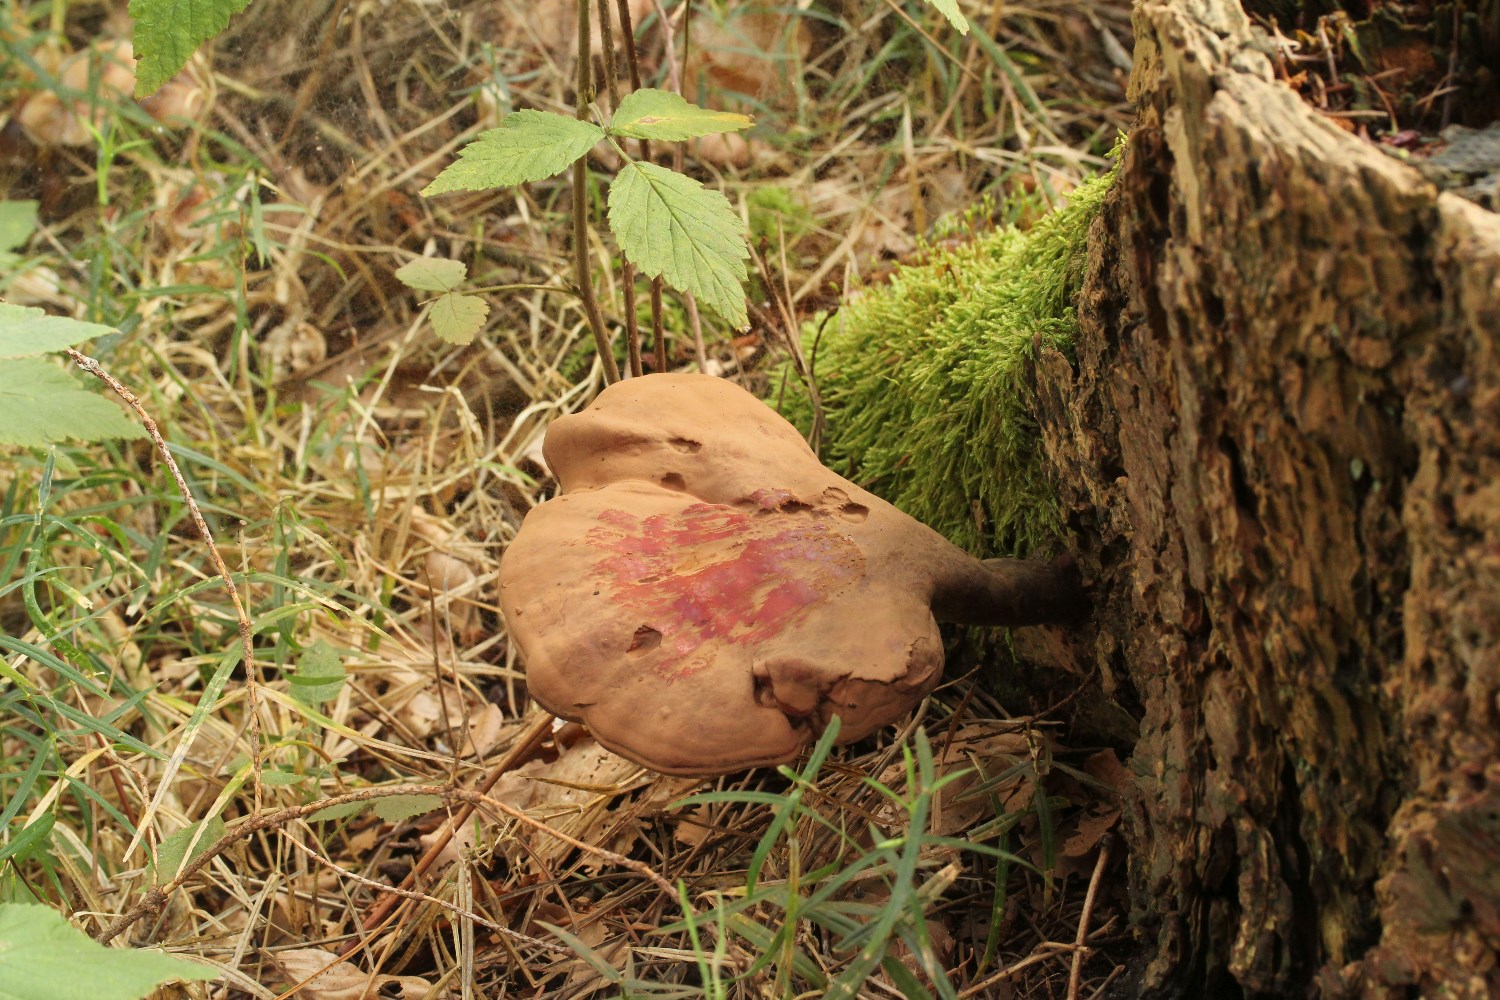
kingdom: Fungi
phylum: Basidiomycota
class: Agaricomycetes
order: Polyporales
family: Polyporaceae
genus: Ganoderma
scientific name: Ganoderma lucidum
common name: skinnende lakporesvamp
